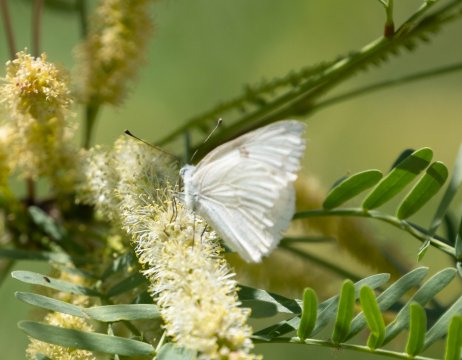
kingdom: Animalia
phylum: Arthropoda
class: Insecta
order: Lepidoptera
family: Pieridae
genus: Pontia
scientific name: Pontia protodice
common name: Checkered White
